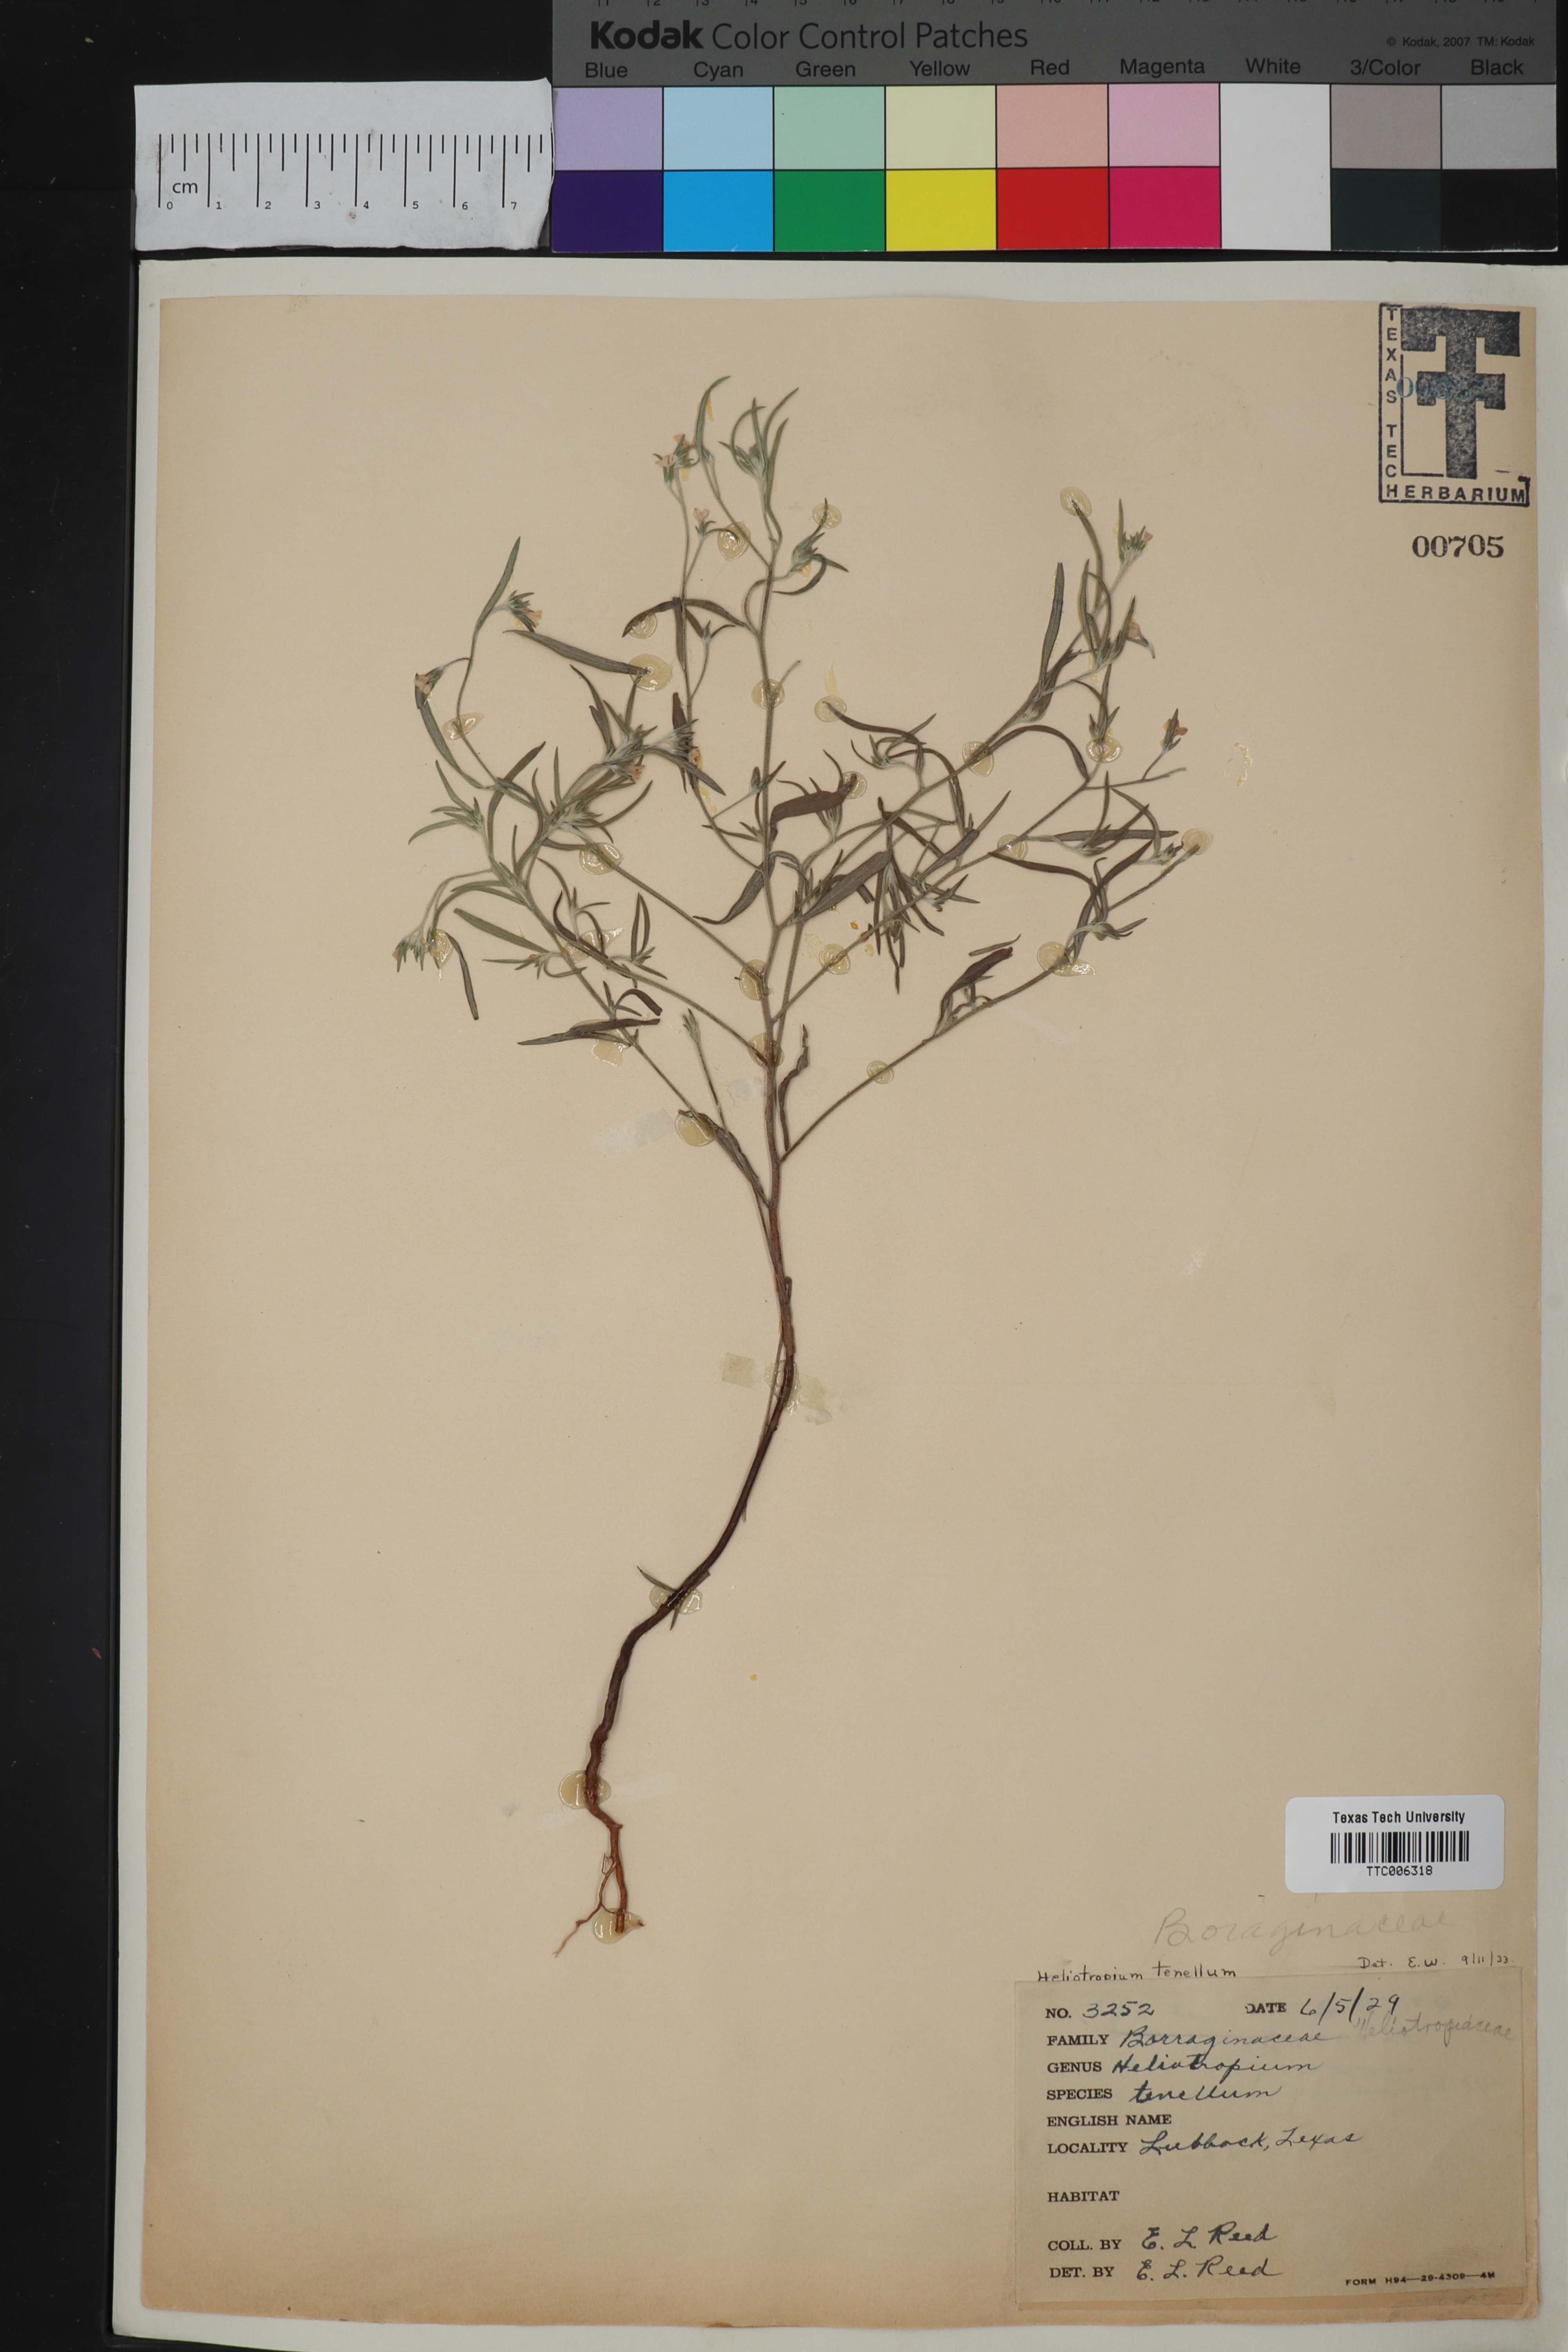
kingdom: Plantae
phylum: Tracheophyta
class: Magnoliopsida
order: Boraginales
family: Heliotropiaceae
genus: Euploca
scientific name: Euploca tenella
